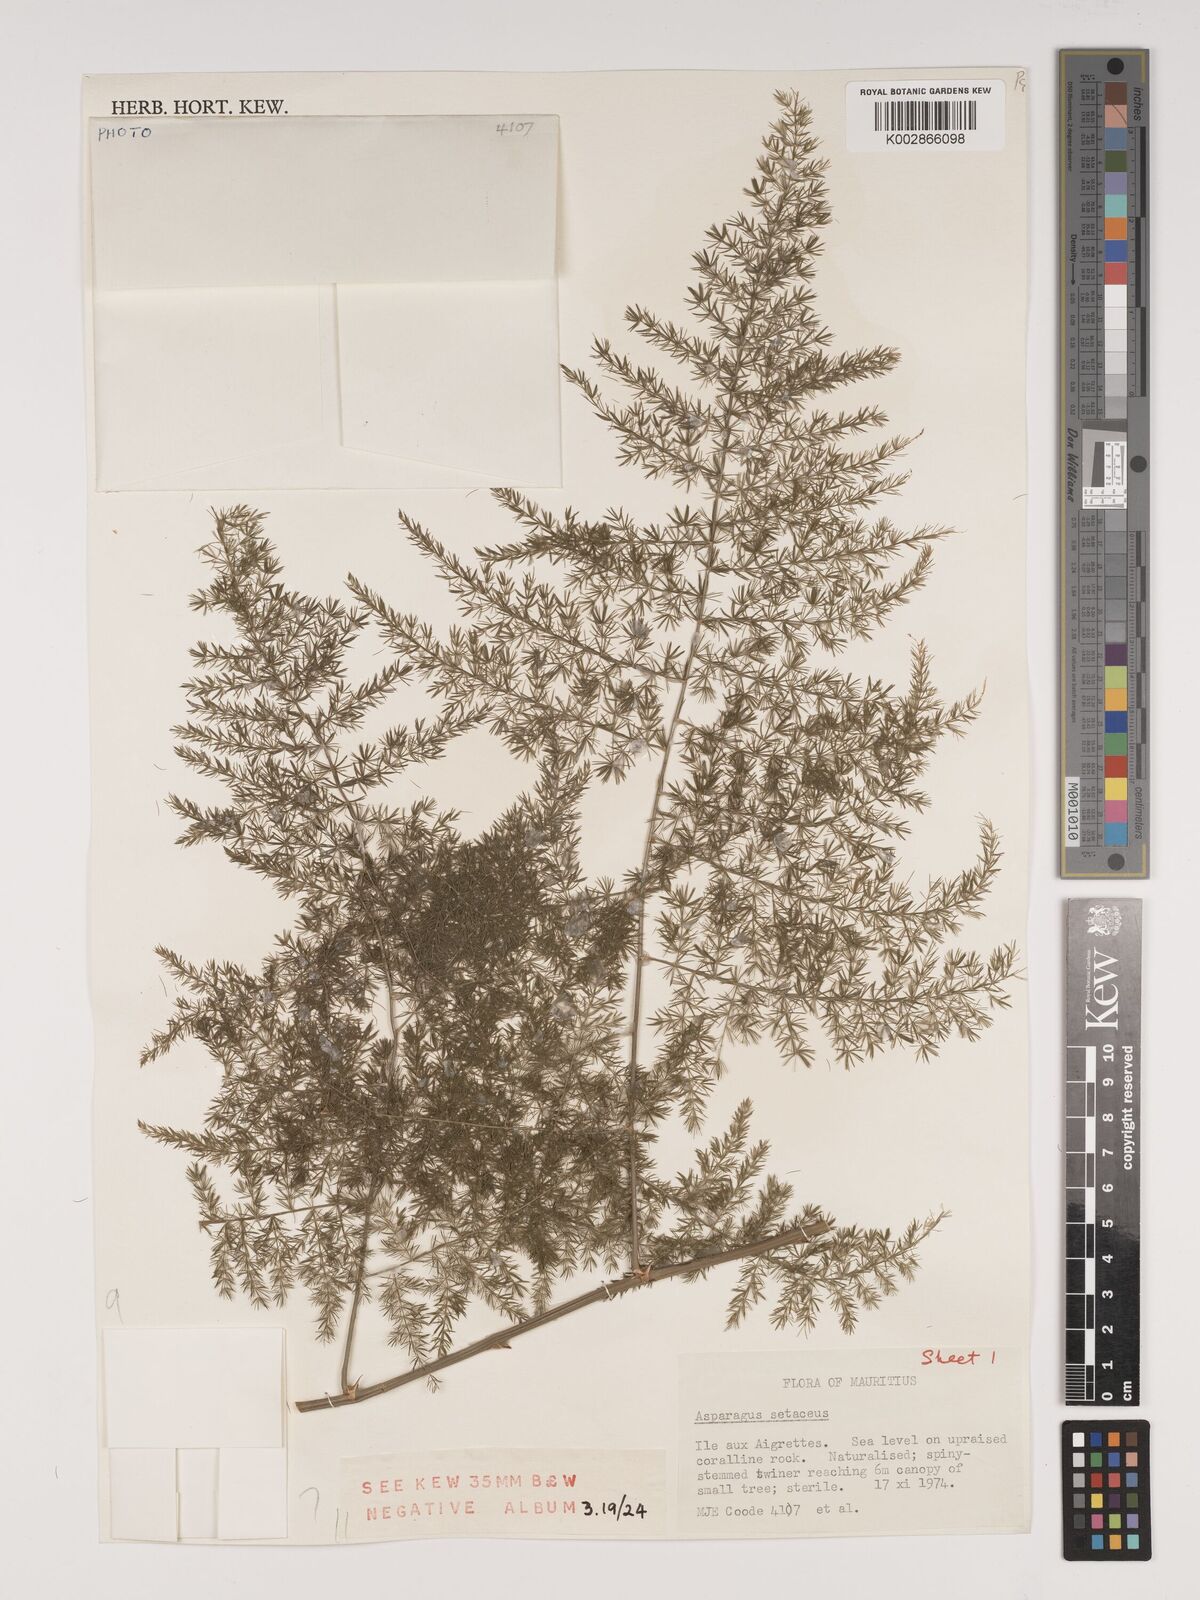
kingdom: Plantae
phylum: Tracheophyta
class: Liliopsida
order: Asparagales
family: Asparagaceae
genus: Asparagus
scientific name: Asparagus setaceus
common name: Common asparagus fern
